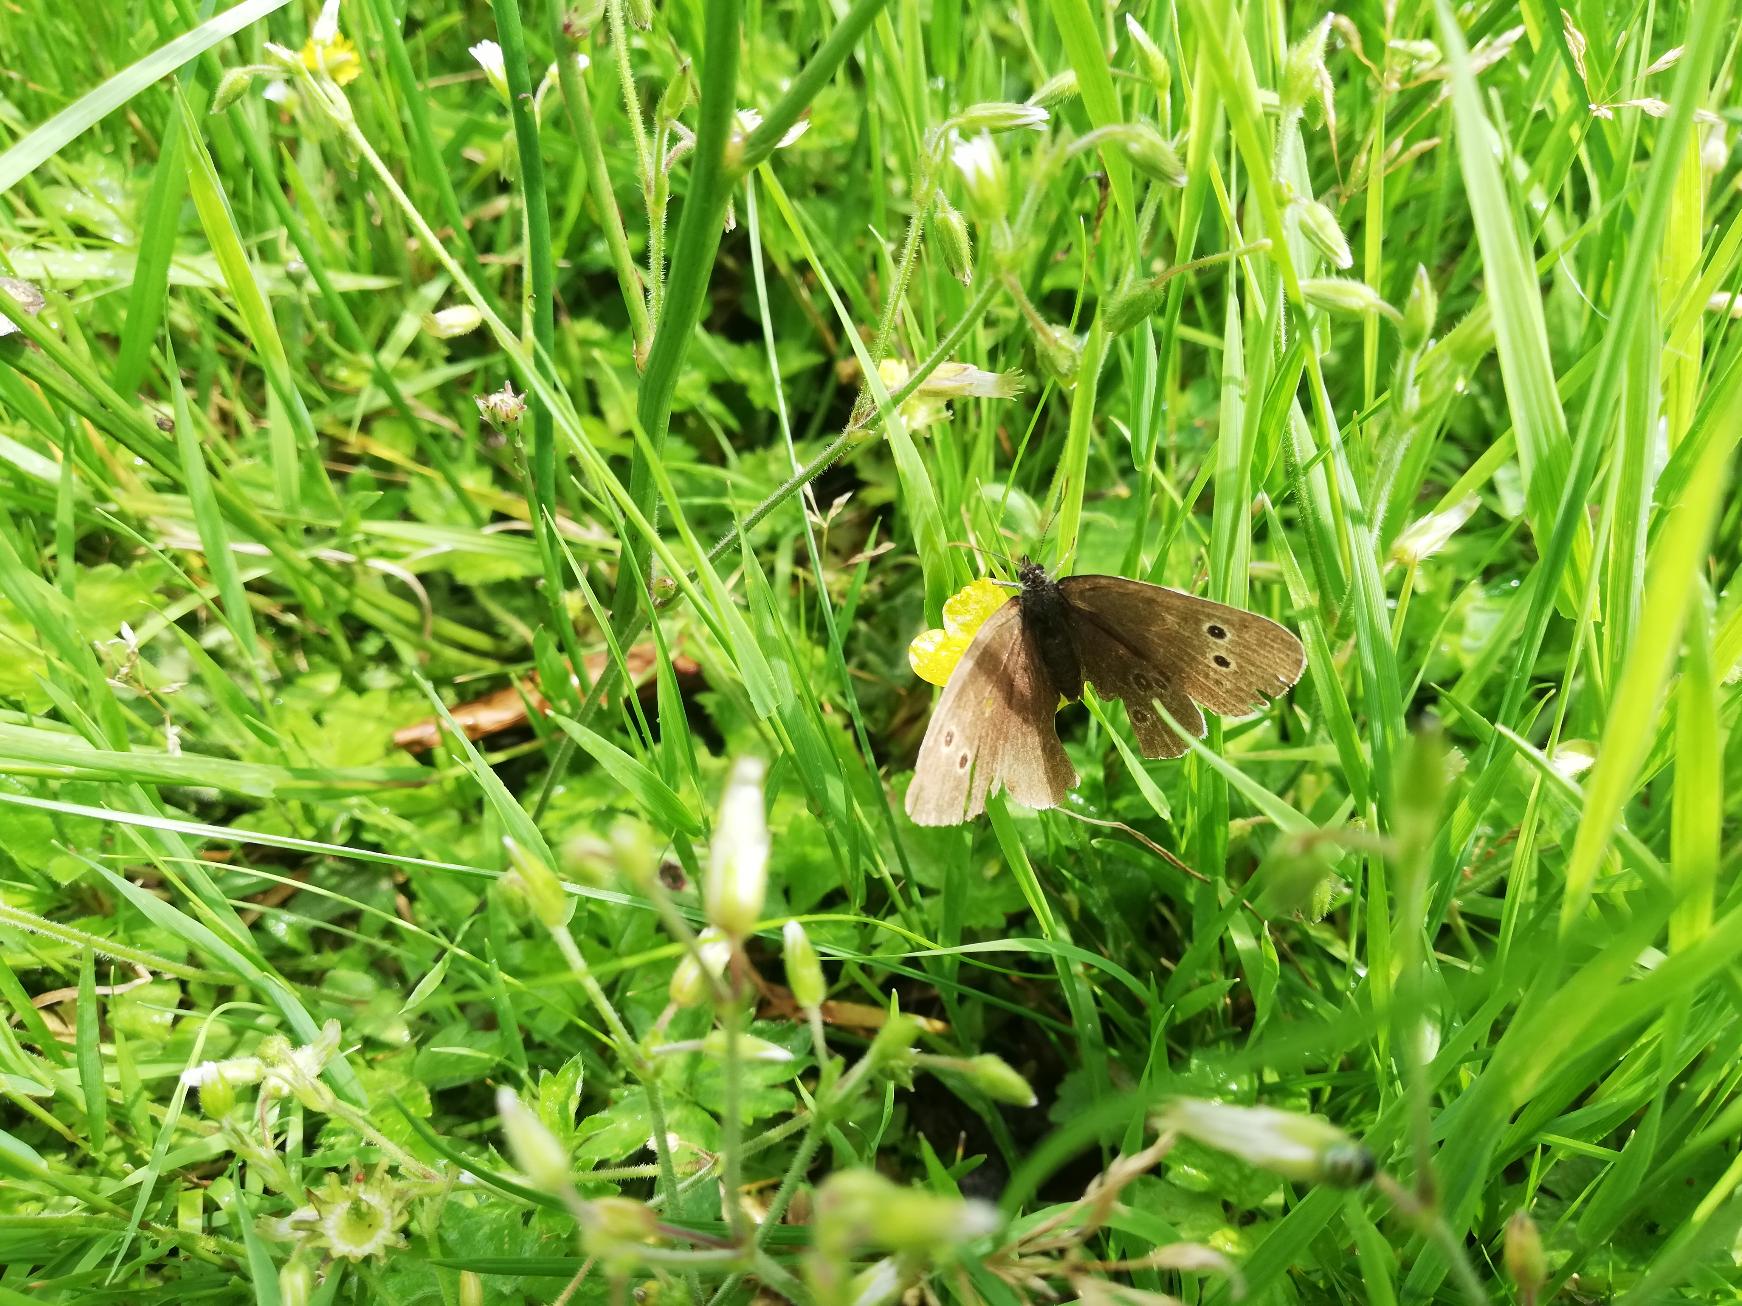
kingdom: Animalia
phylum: Arthropoda
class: Insecta
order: Lepidoptera
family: Nymphalidae
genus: Aphantopus
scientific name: Aphantopus hyperantus
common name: Engrandøje
